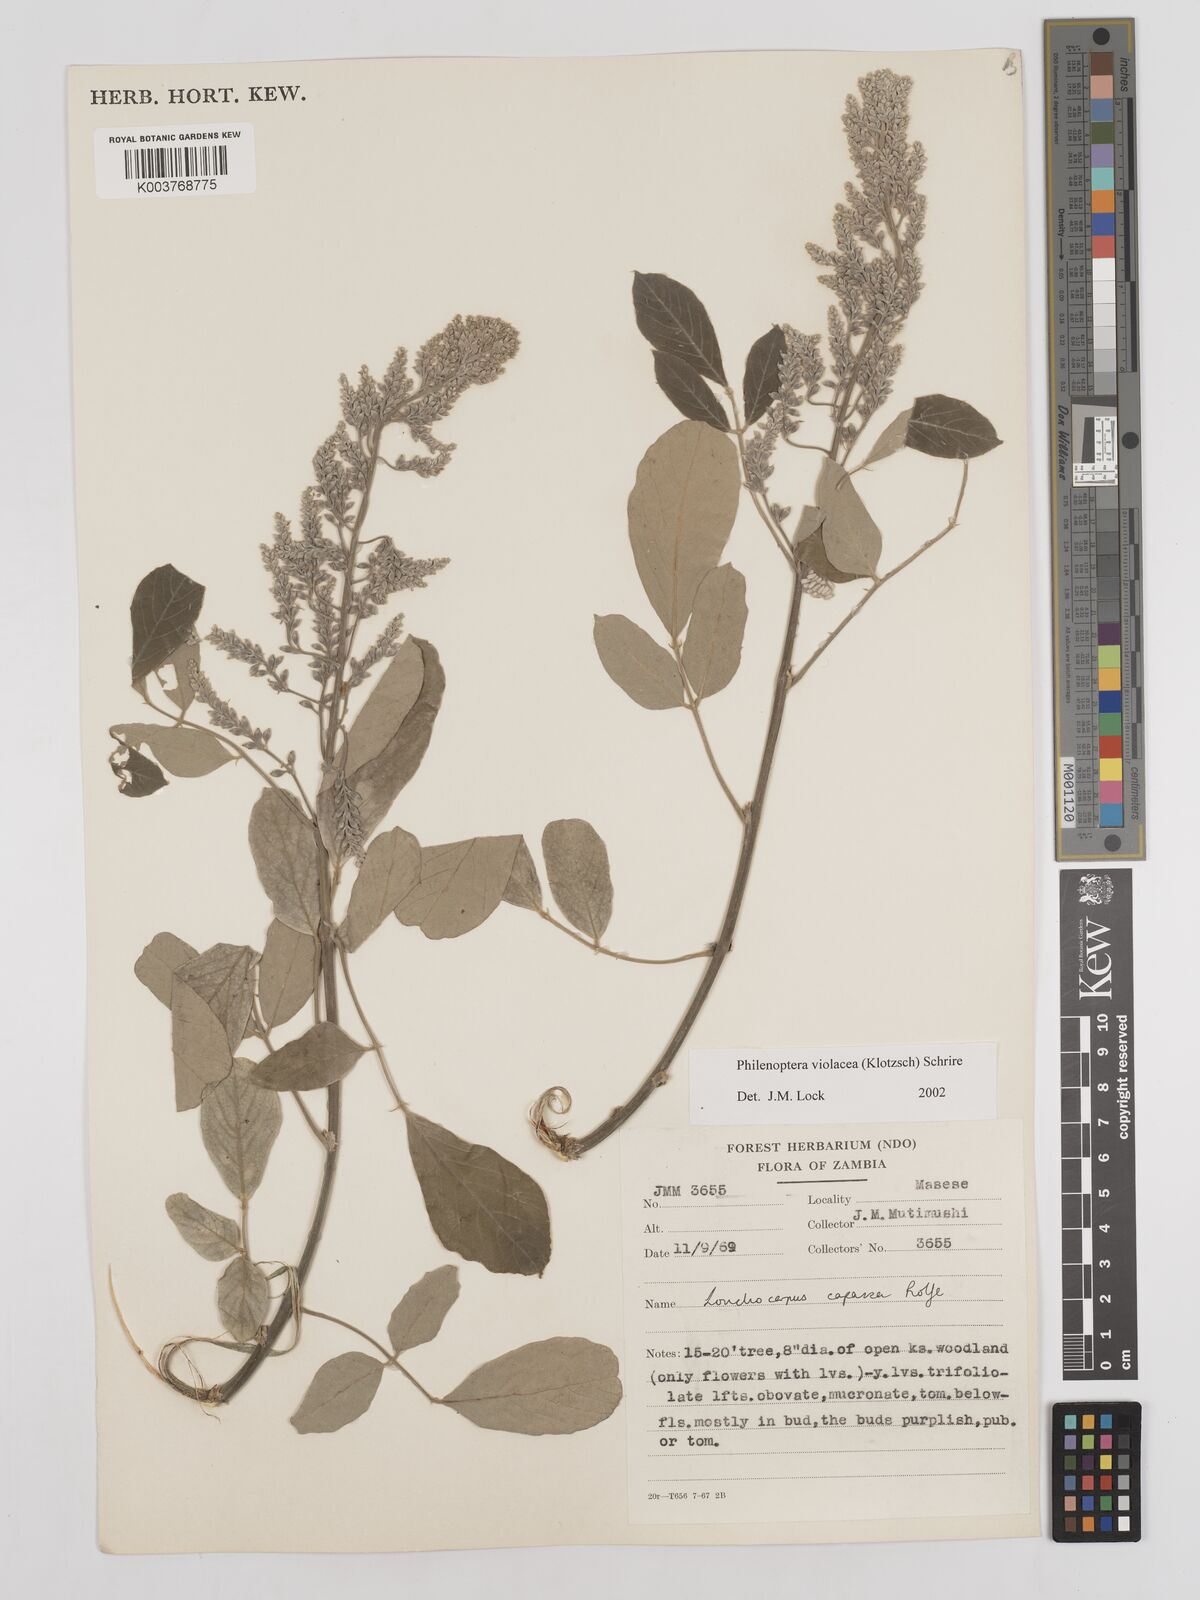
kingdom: Plantae
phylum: Tracheophyta
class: Magnoliopsida
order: Fabales
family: Fabaceae
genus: Philenoptera
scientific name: Philenoptera violacea
